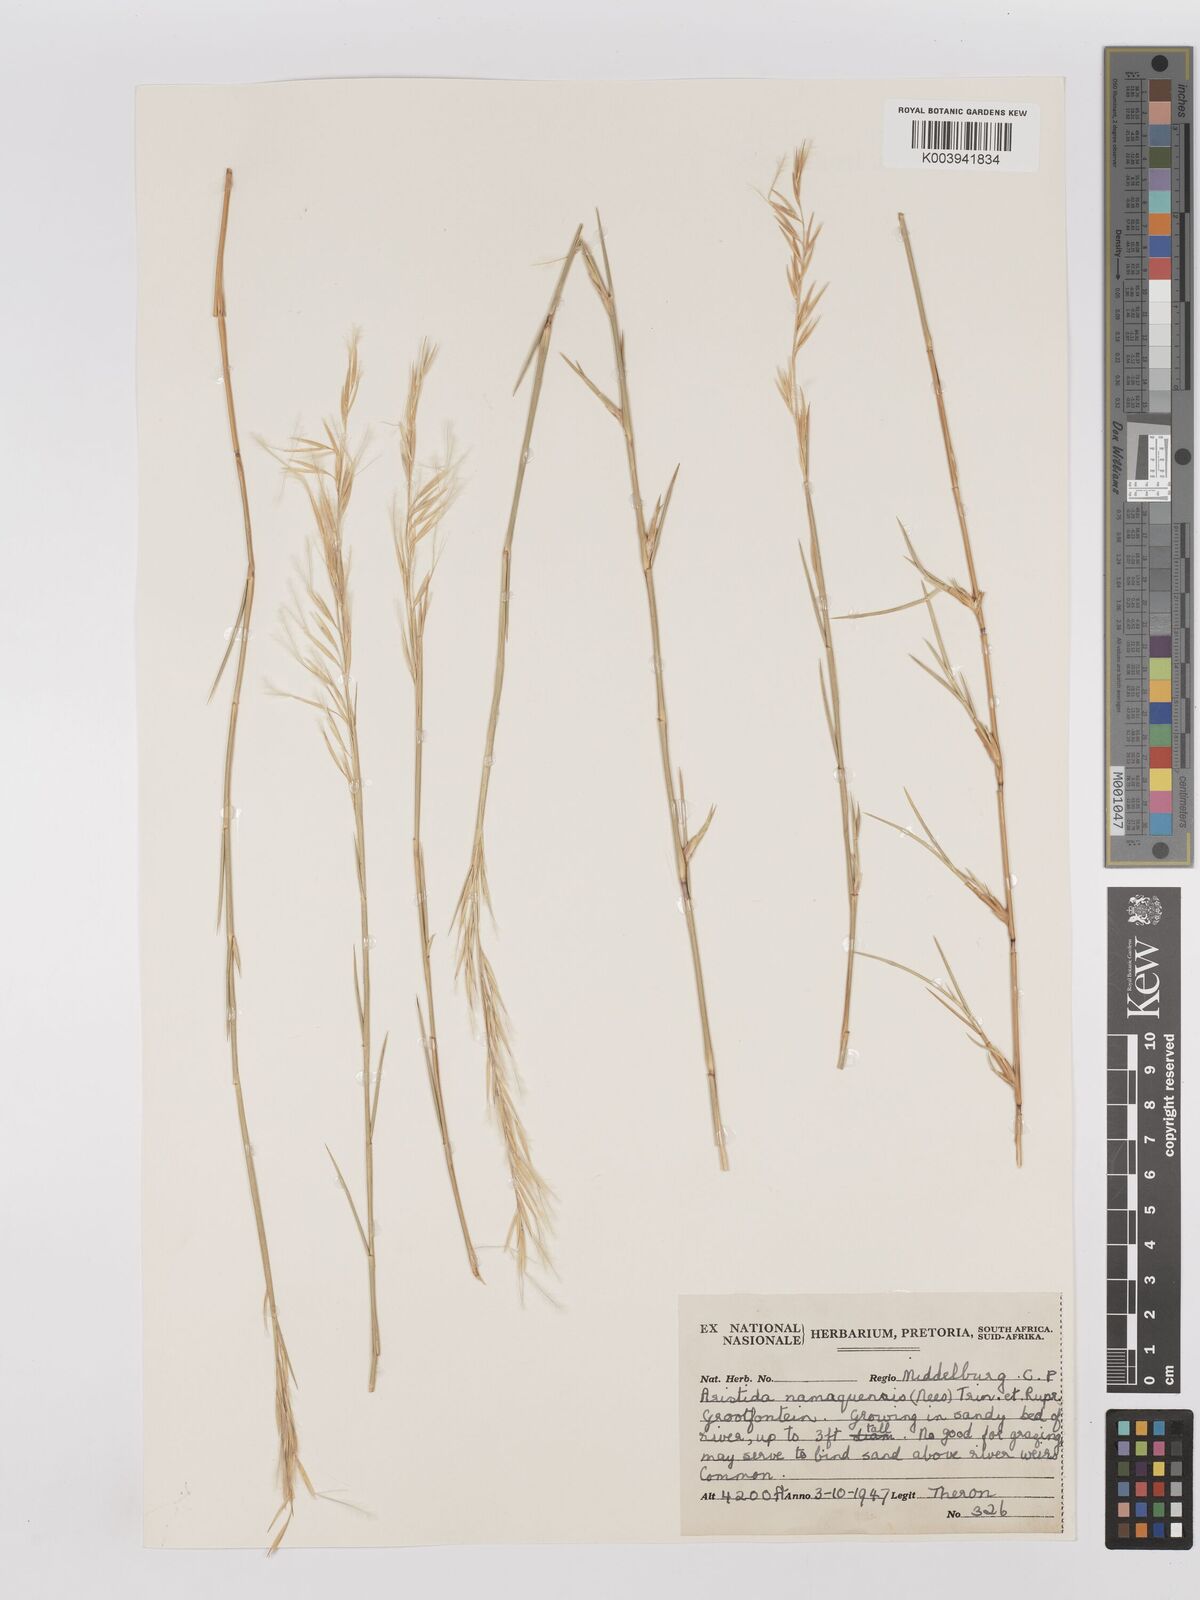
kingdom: Plantae
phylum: Tracheophyta
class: Liliopsida
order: Poales
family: Poaceae
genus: Stipagrostis
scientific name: Stipagrostis namaquensis
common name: River bushman grass
